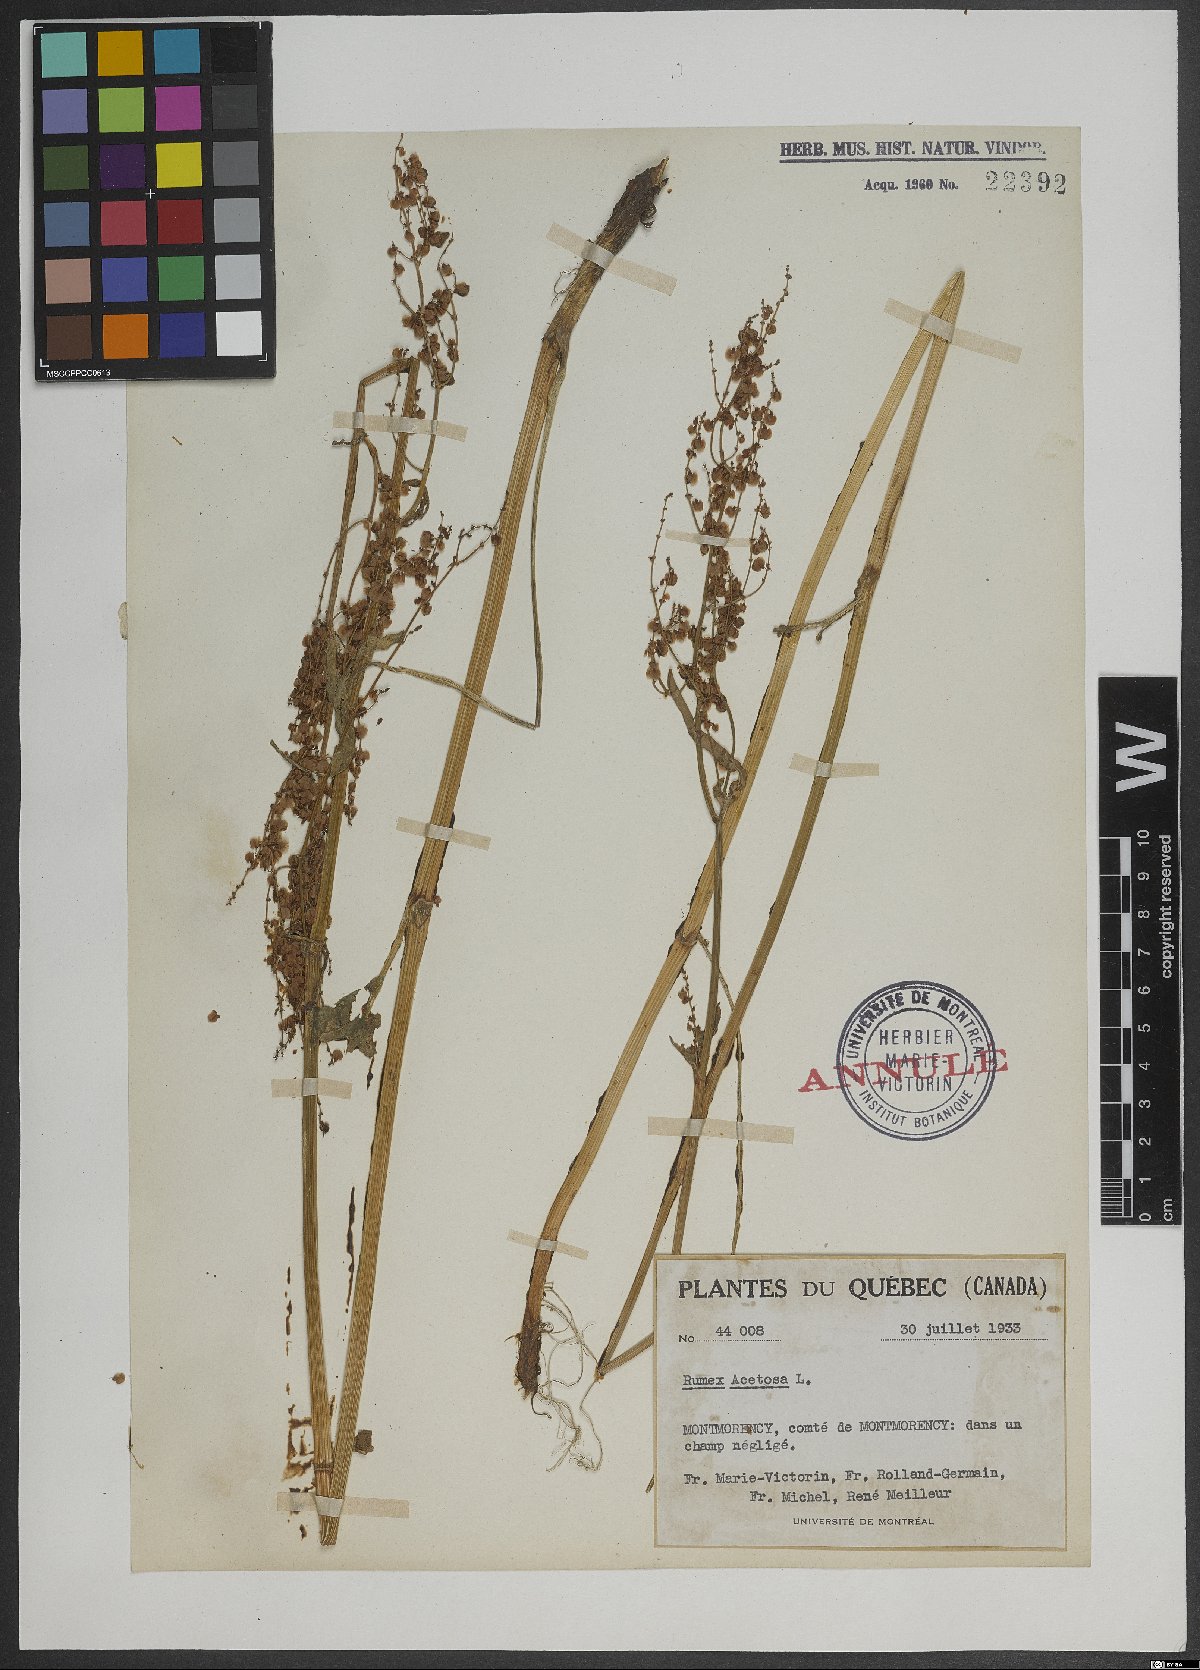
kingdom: Plantae
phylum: Tracheophyta
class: Magnoliopsida
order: Caryophyllales
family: Polygonaceae
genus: Rumex
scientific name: Rumex acetosa
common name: Garden sorrel
